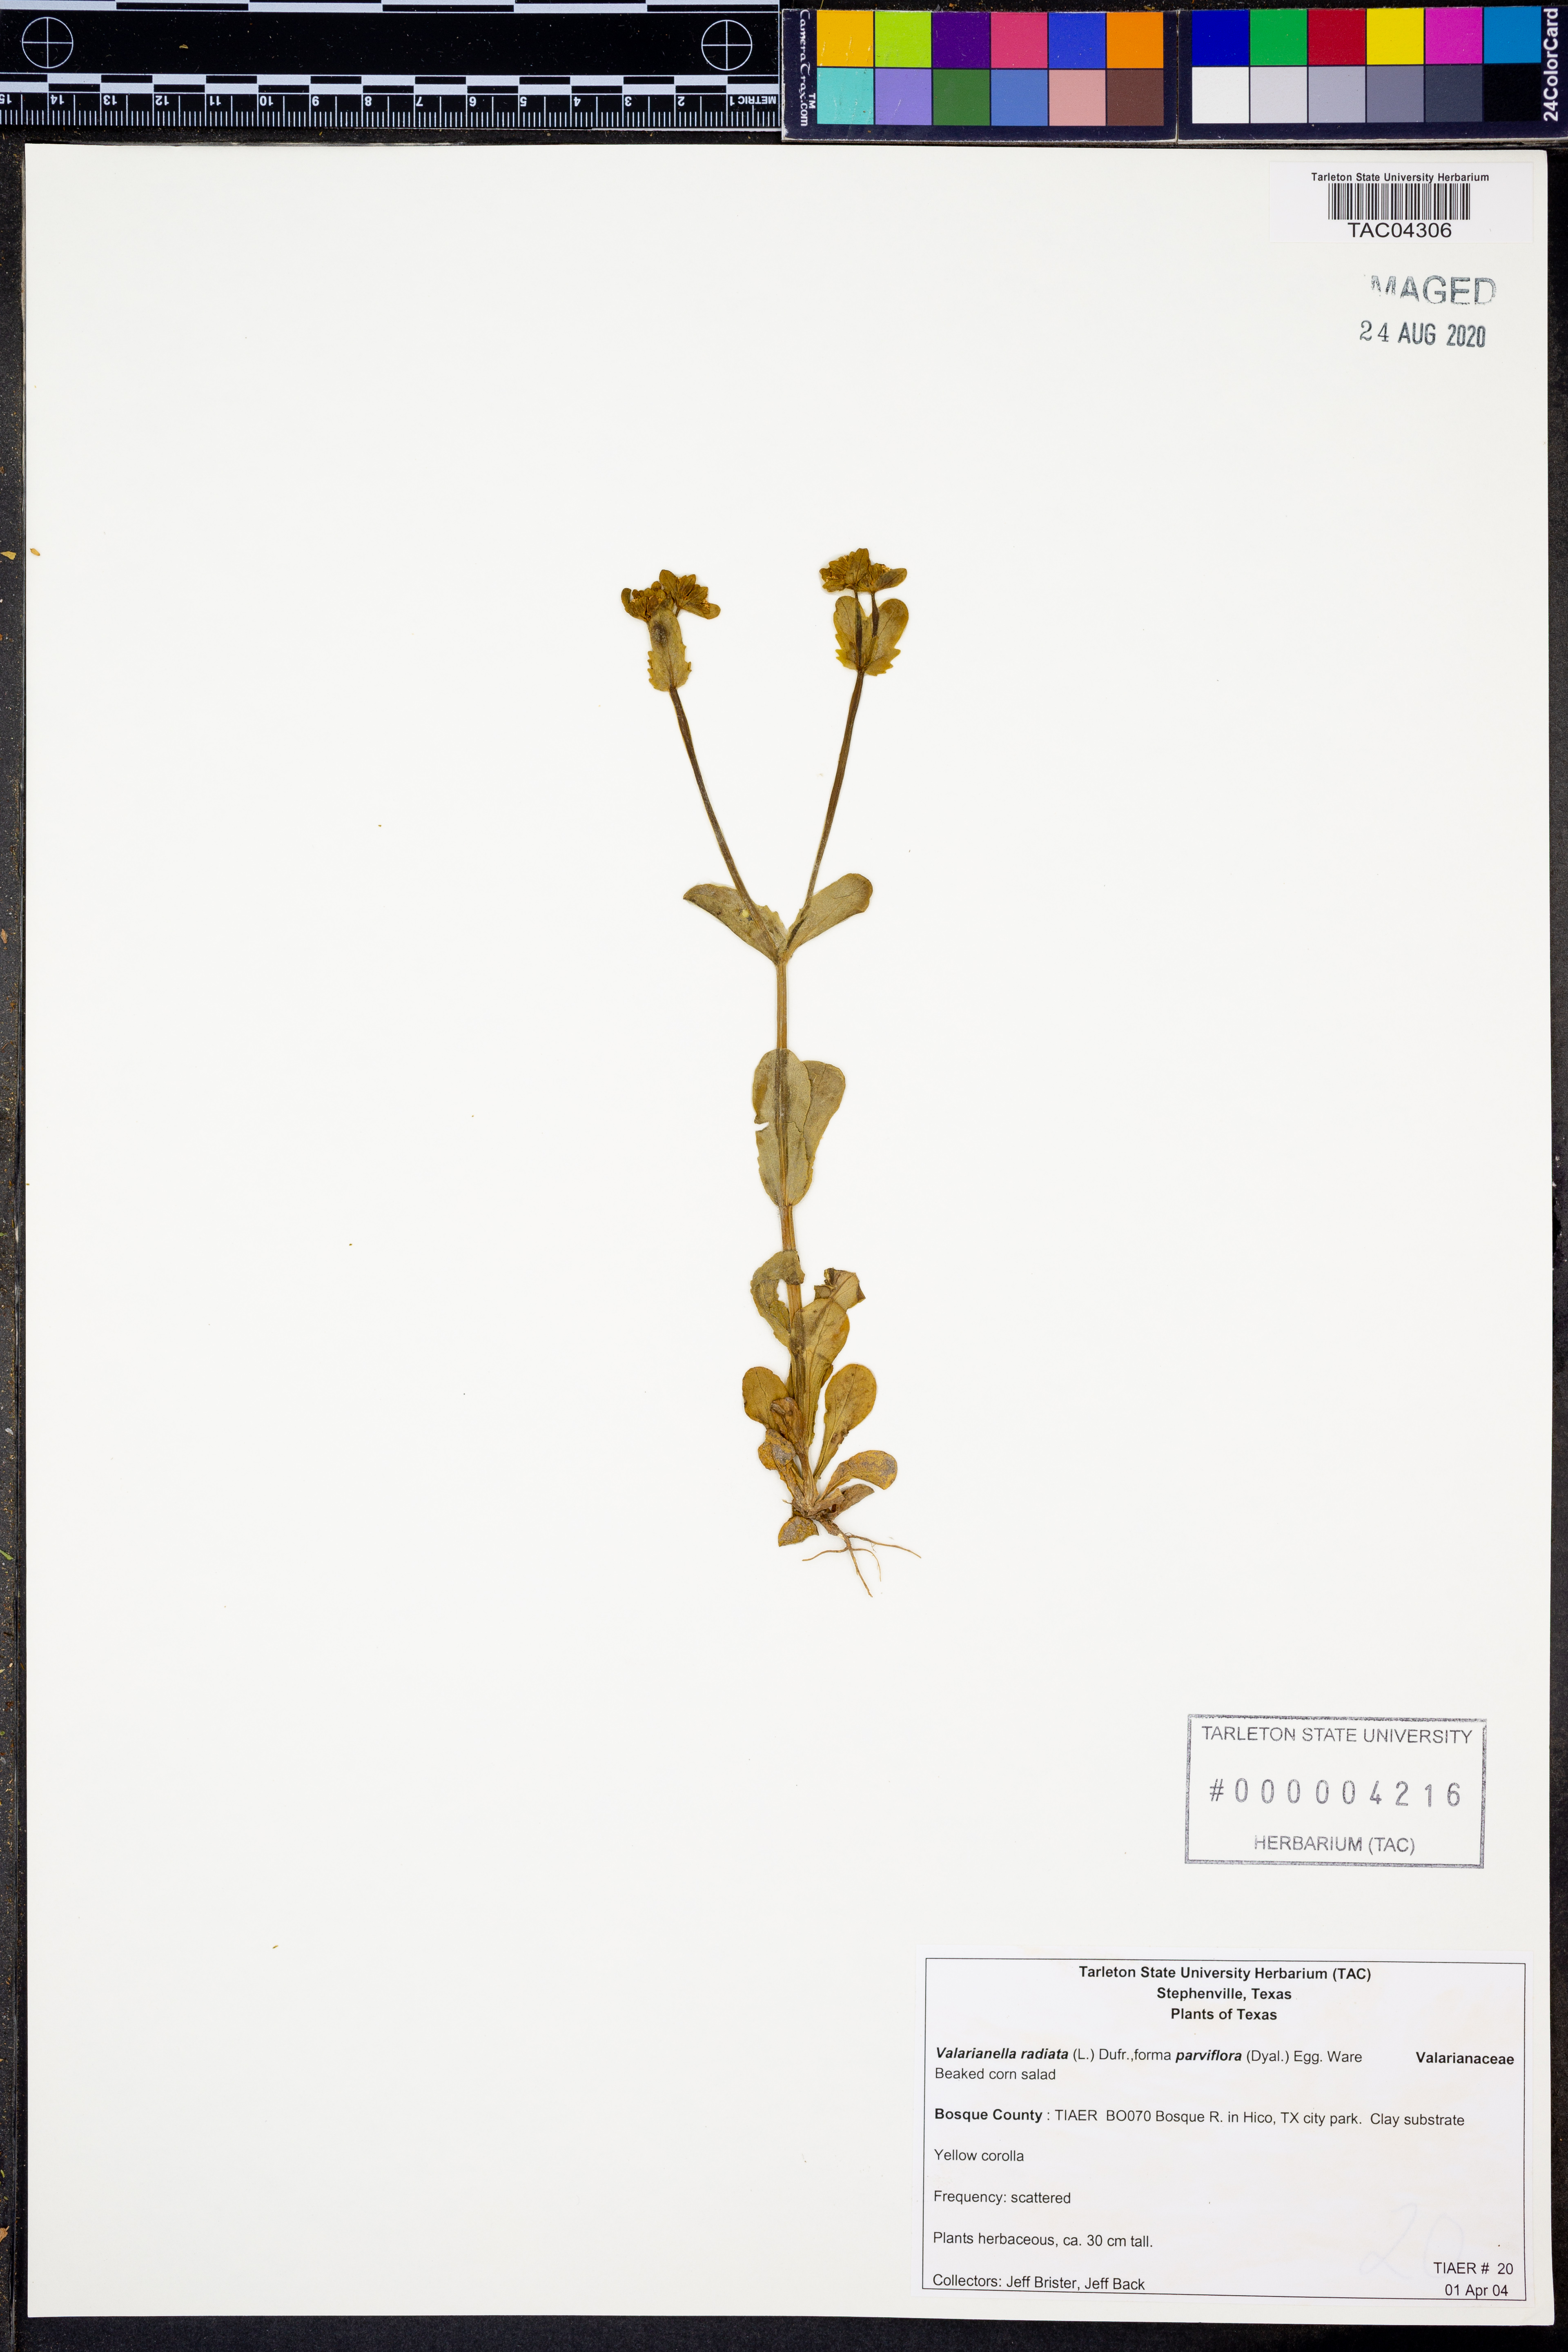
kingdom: Plantae
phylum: Tracheophyta
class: Magnoliopsida
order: Dipsacales
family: Caprifoliaceae
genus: Valerianella
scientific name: Valerianella radiata
